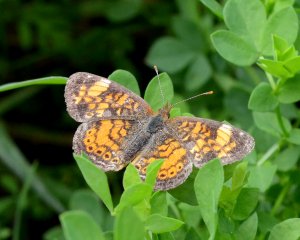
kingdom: Animalia
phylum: Arthropoda
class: Insecta
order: Lepidoptera
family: Nymphalidae
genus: Phyciodes
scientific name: Phyciodes tharos
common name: Pearl Crescent
